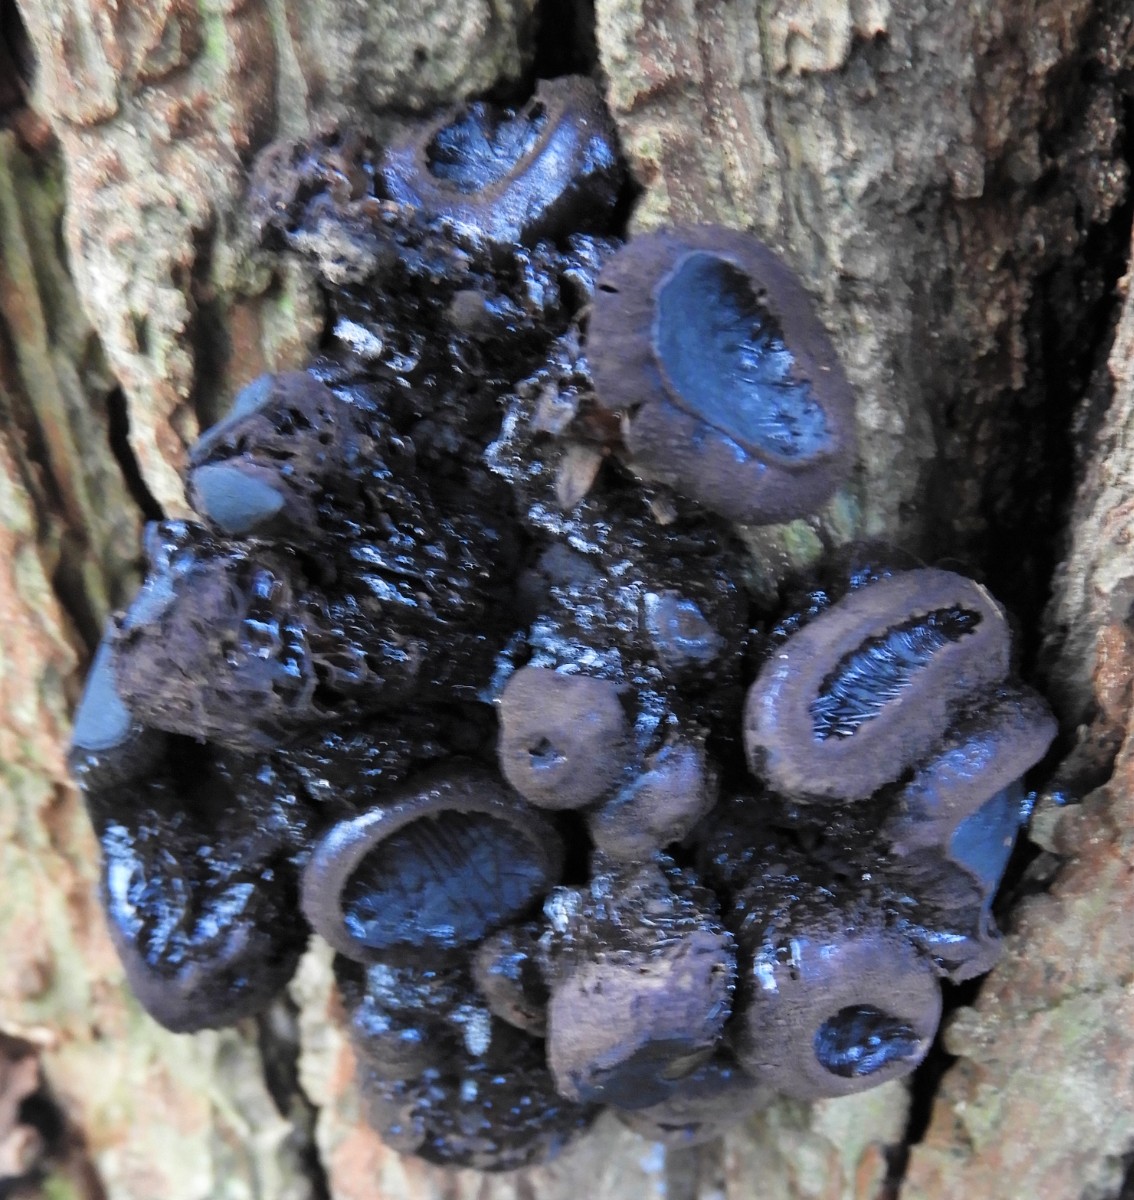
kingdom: Fungi
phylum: Ascomycota
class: Leotiomycetes
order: Phacidiales
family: Phacidiaceae
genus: Bulgaria
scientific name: Bulgaria inquinans
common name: afsmittende topsvamp
